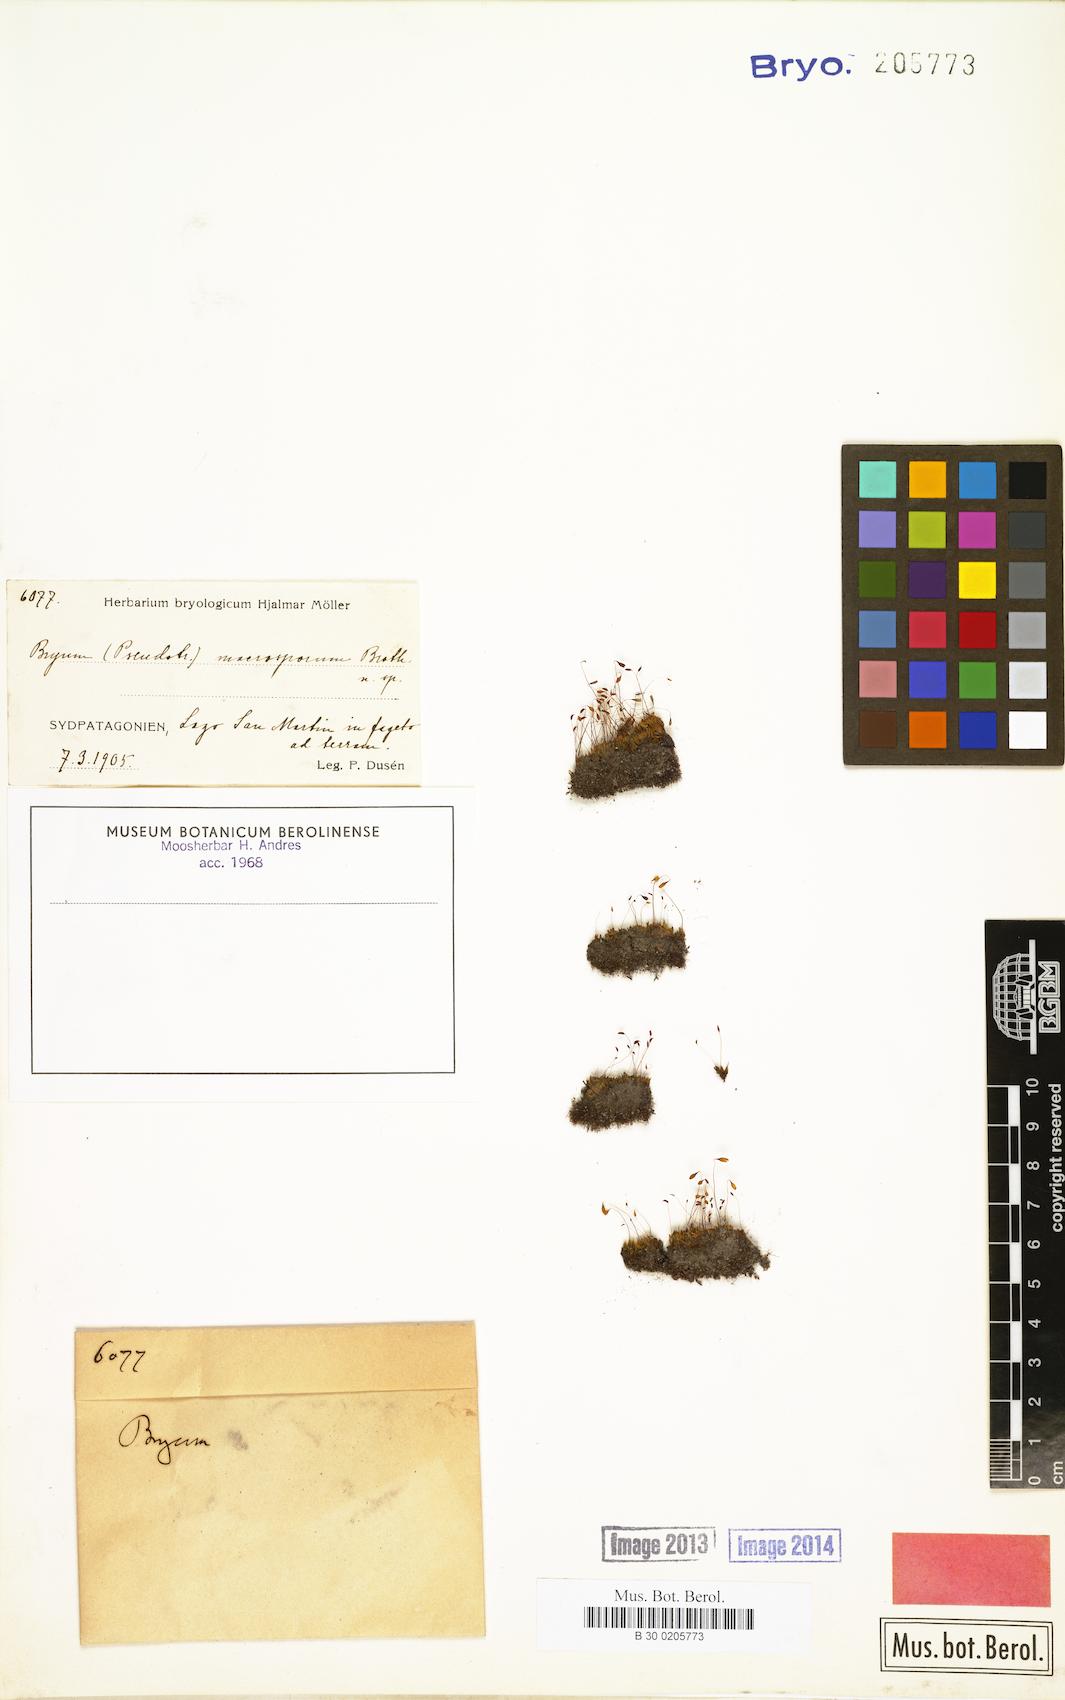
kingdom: Plantae
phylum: Bryophyta
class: Bryopsida
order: Bryales
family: Bryaceae
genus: Ptychostomum
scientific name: Ptychostomum chorizodontum
